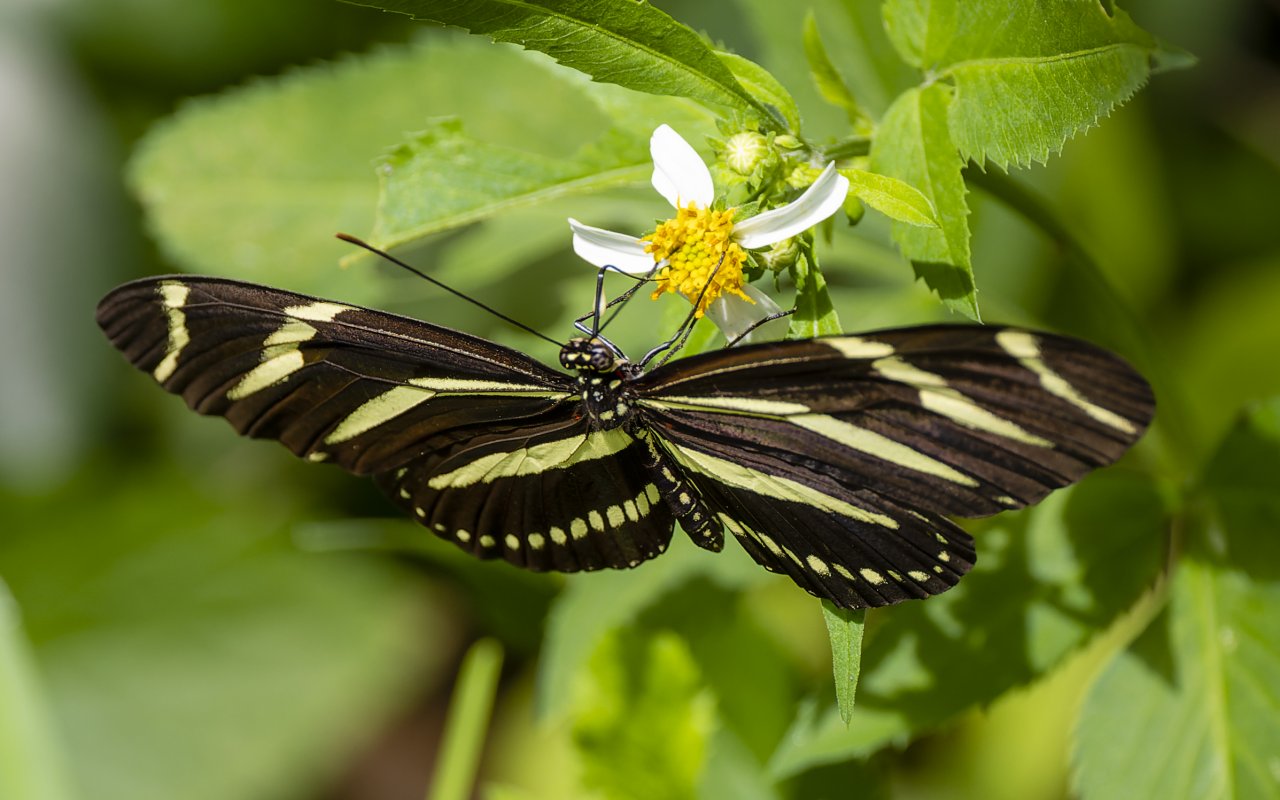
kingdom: Animalia
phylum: Arthropoda
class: Insecta
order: Lepidoptera
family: Nymphalidae
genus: Heliconius
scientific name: Heliconius charithonia
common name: Zebra Longwing
